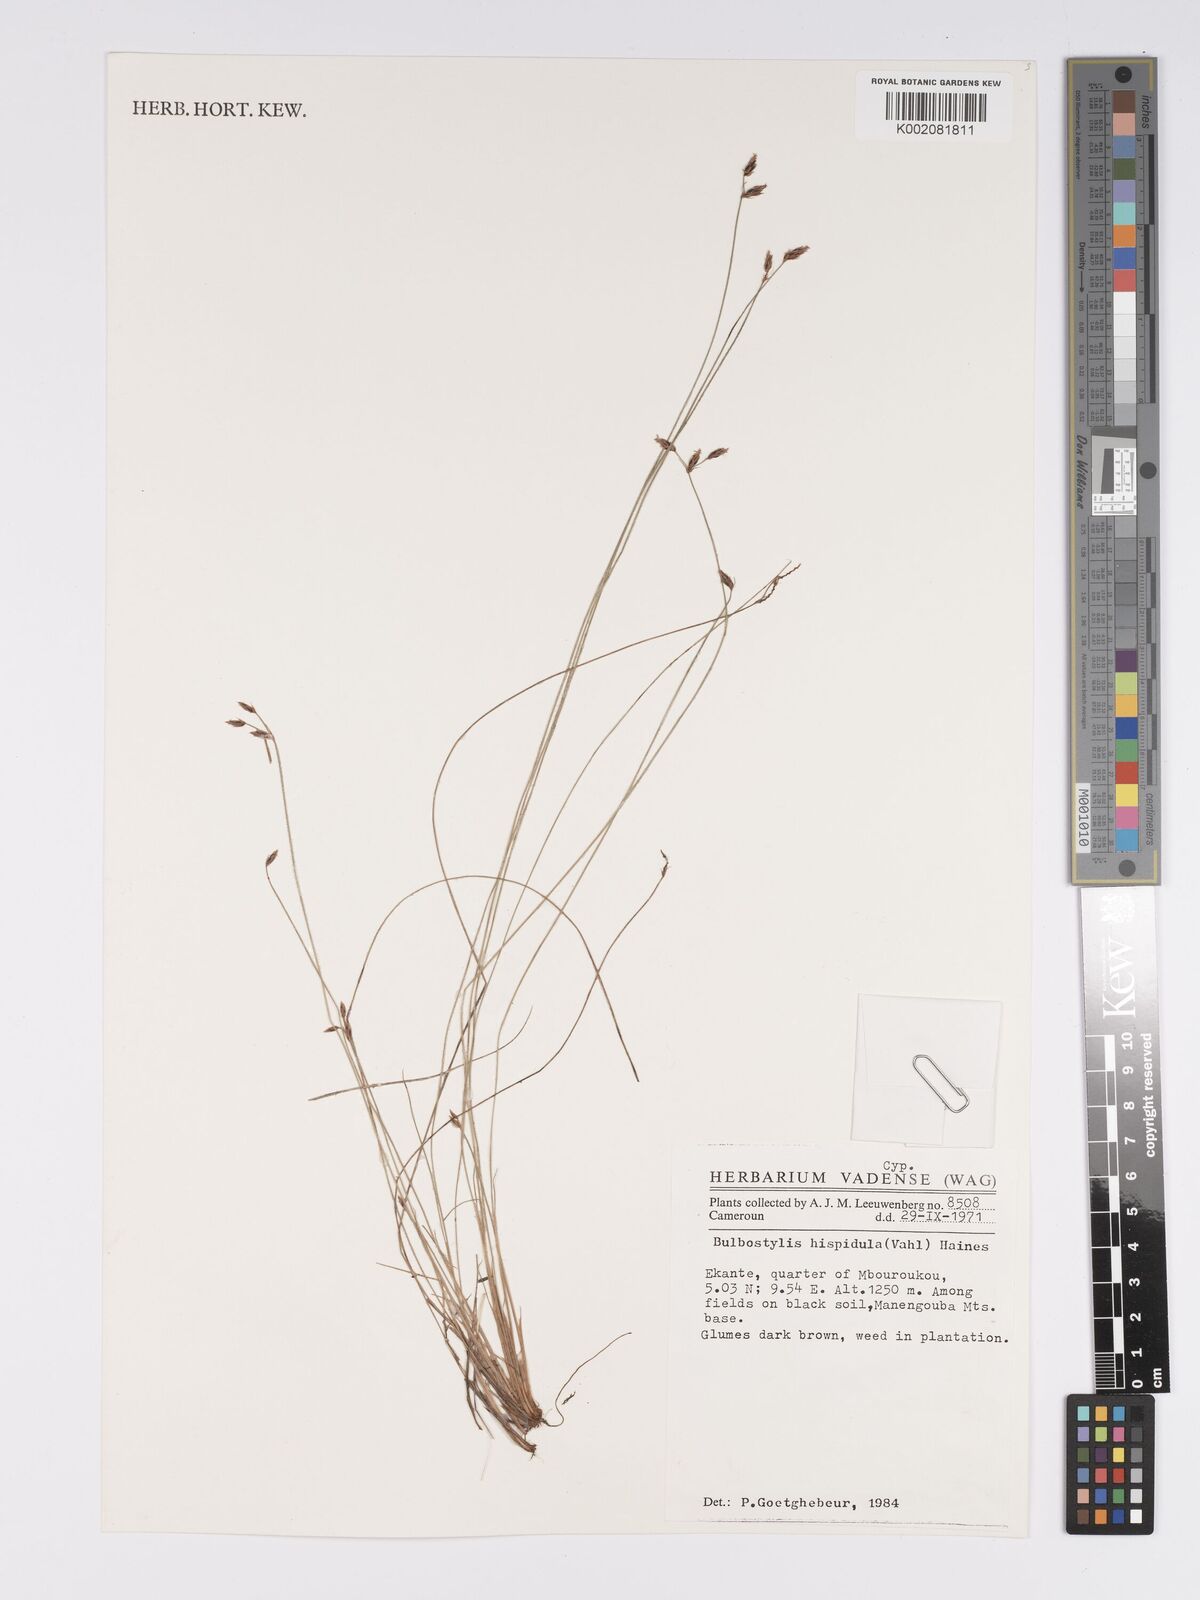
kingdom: Plantae
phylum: Tracheophyta
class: Liliopsida
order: Poales
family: Cyperaceae
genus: Bulbostylis
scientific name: Bulbostylis hispidula
